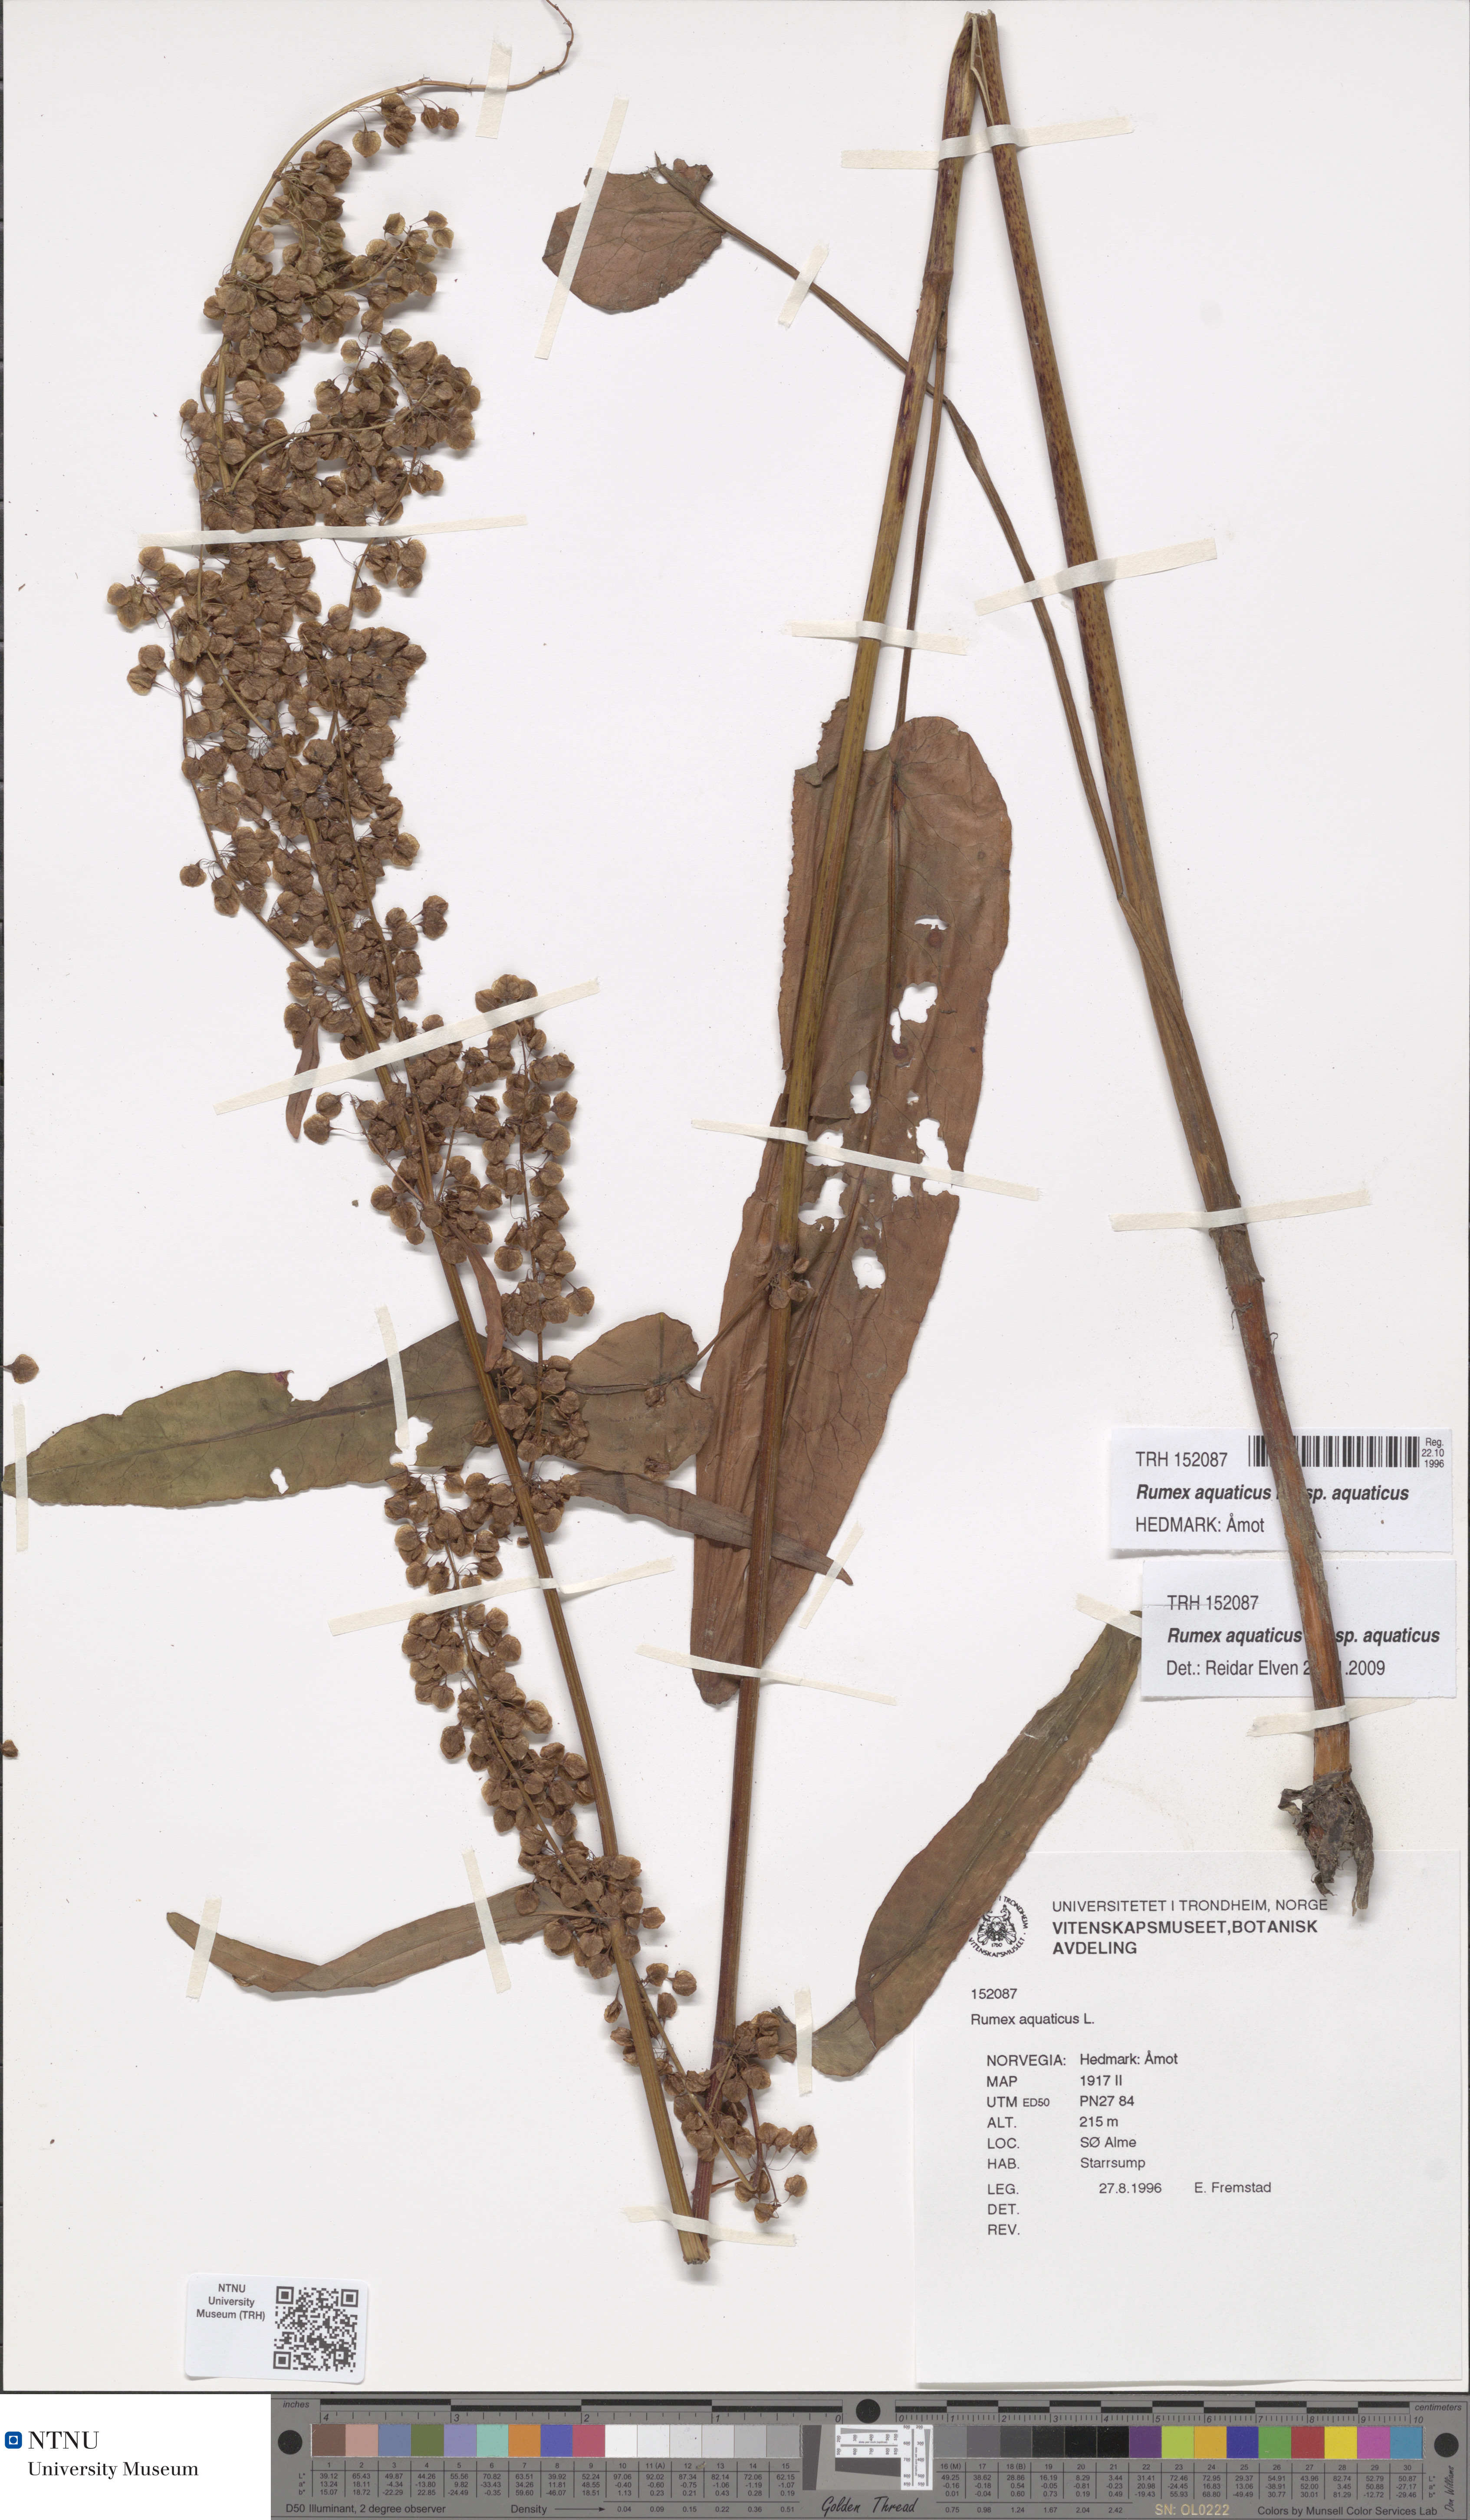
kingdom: Plantae
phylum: Tracheophyta
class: Magnoliopsida
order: Caryophyllales
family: Polygonaceae
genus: Rumex
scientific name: Rumex aquaticus
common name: Scottish dock
